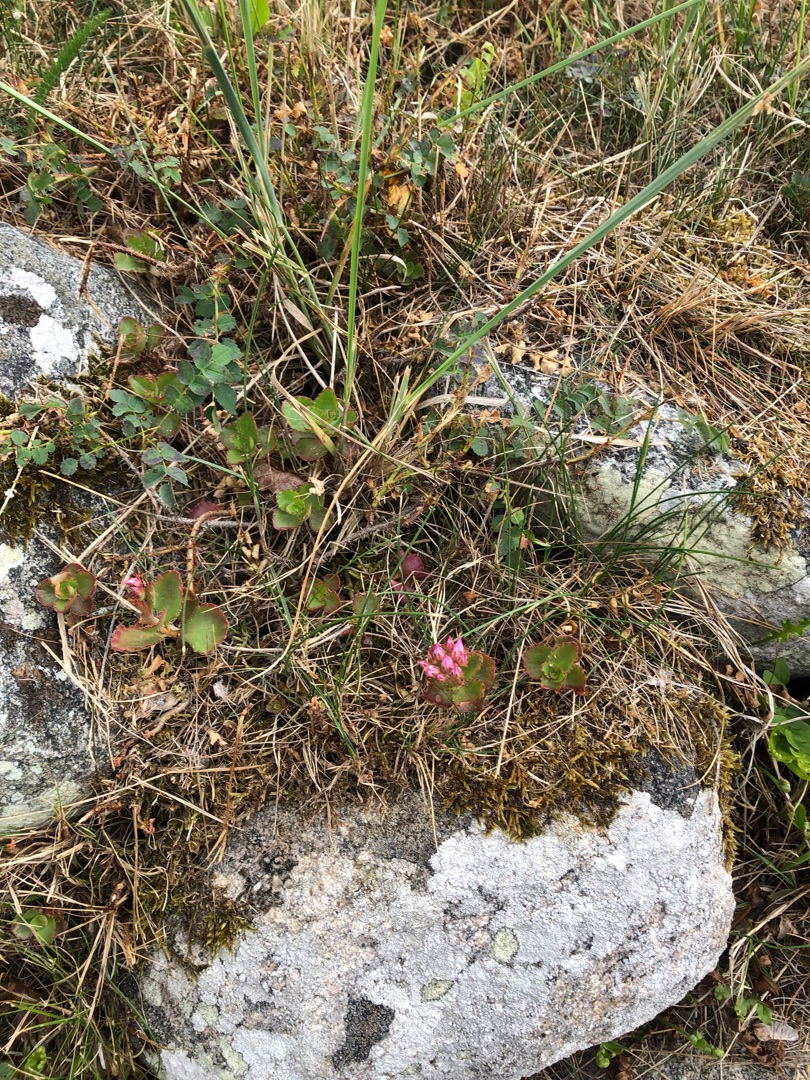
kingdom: Plantae
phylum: Tracheophyta
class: Magnoliopsida
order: Saxifragales
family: Crassulaceae
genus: Phedimus
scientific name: Phedimus spurius
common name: Rød stenurt
